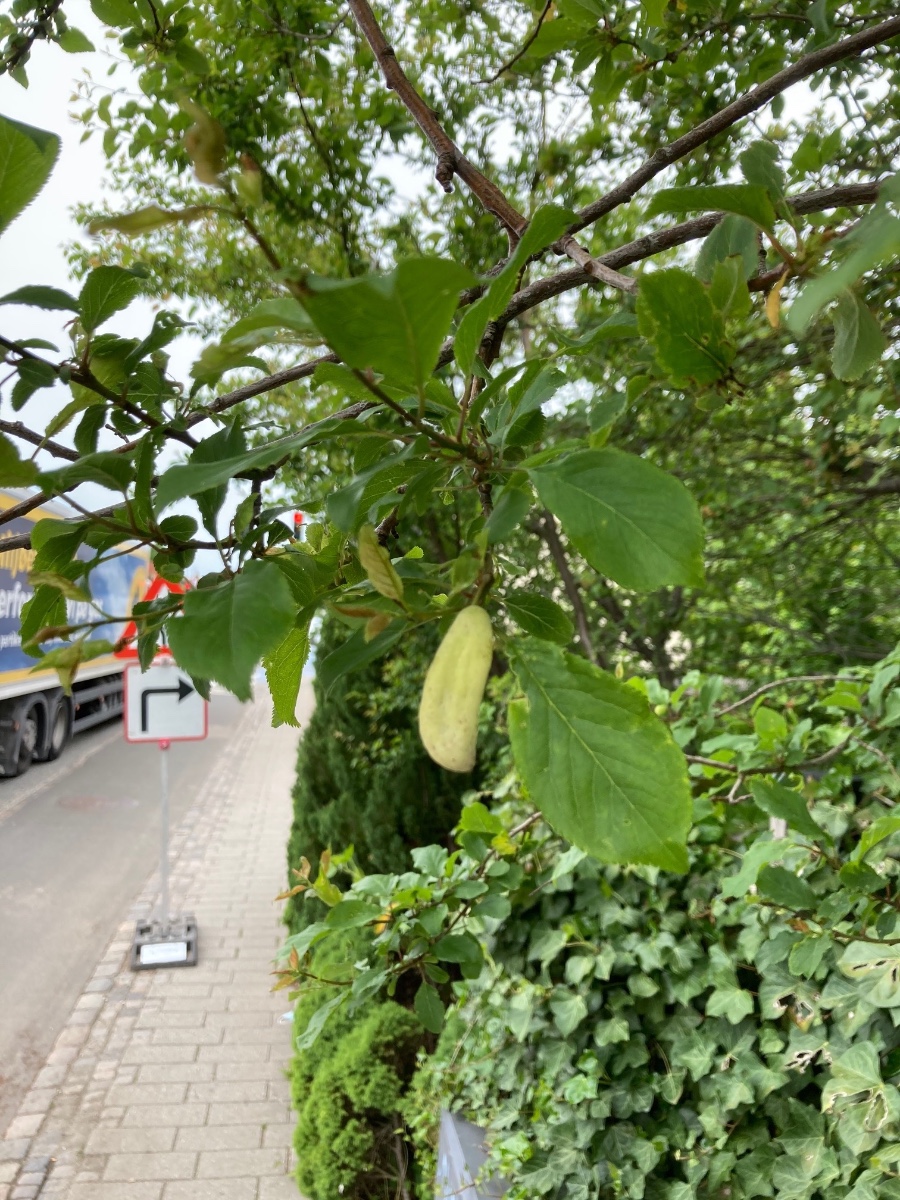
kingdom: Fungi
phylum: Ascomycota
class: Taphrinomycetes
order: Taphrinales
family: Taphrinaceae
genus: Taphrina
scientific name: Taphrina pruni
